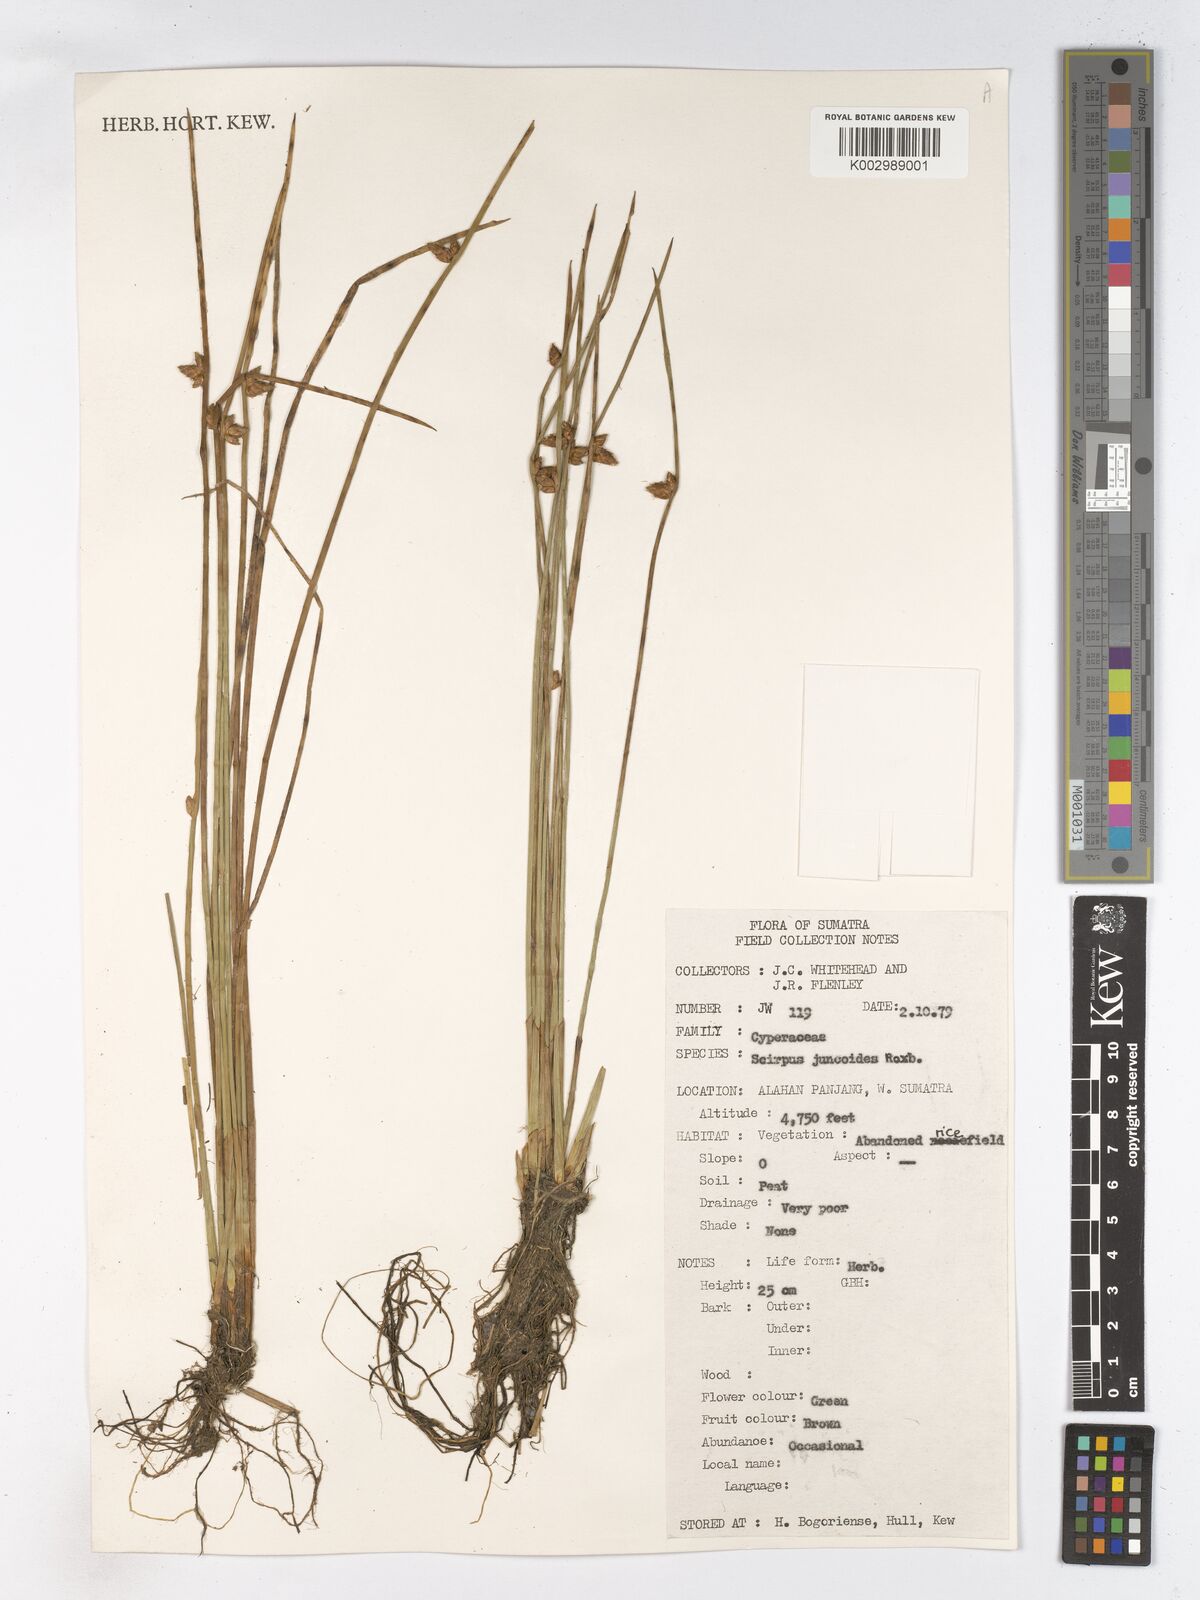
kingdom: Plantae
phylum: Tracheophyta
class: Liliopsida
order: Poales
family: Cyperaceae
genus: Schoenoplectiella
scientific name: Schoenoplectiella juncoides
